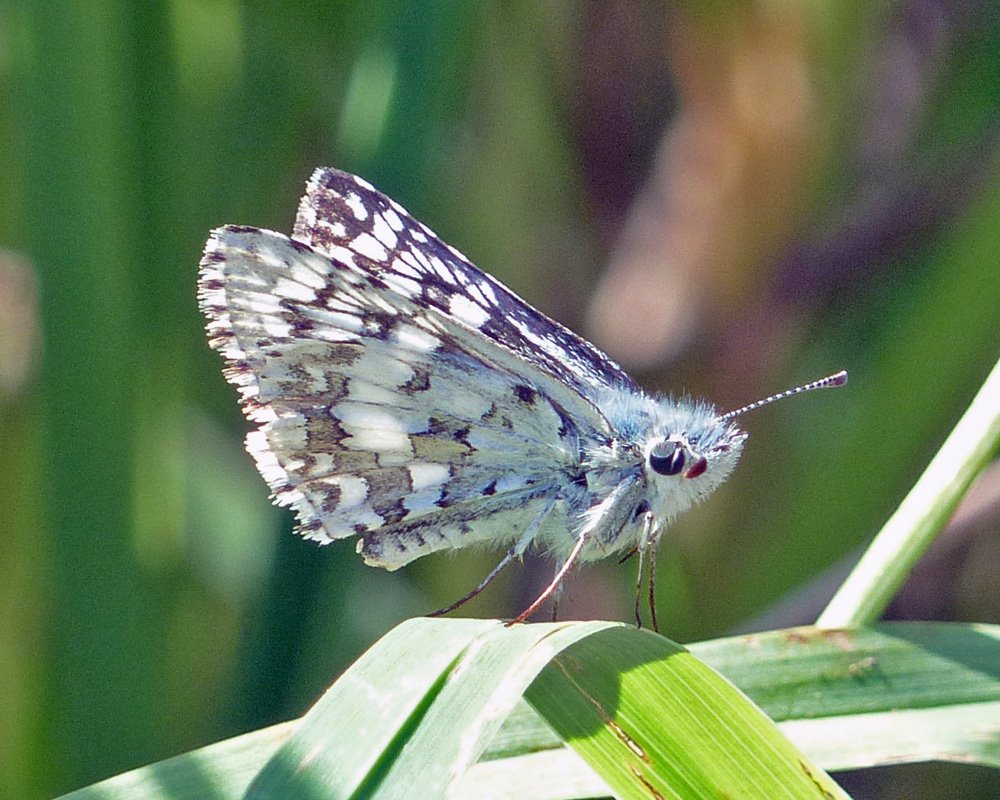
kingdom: Animalia
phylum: Arthropoda
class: Insecta
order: Lepidoptera
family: Hesperiidae
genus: Pyrgus
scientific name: Pyrgus communis
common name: Common Checkered-Skipper
